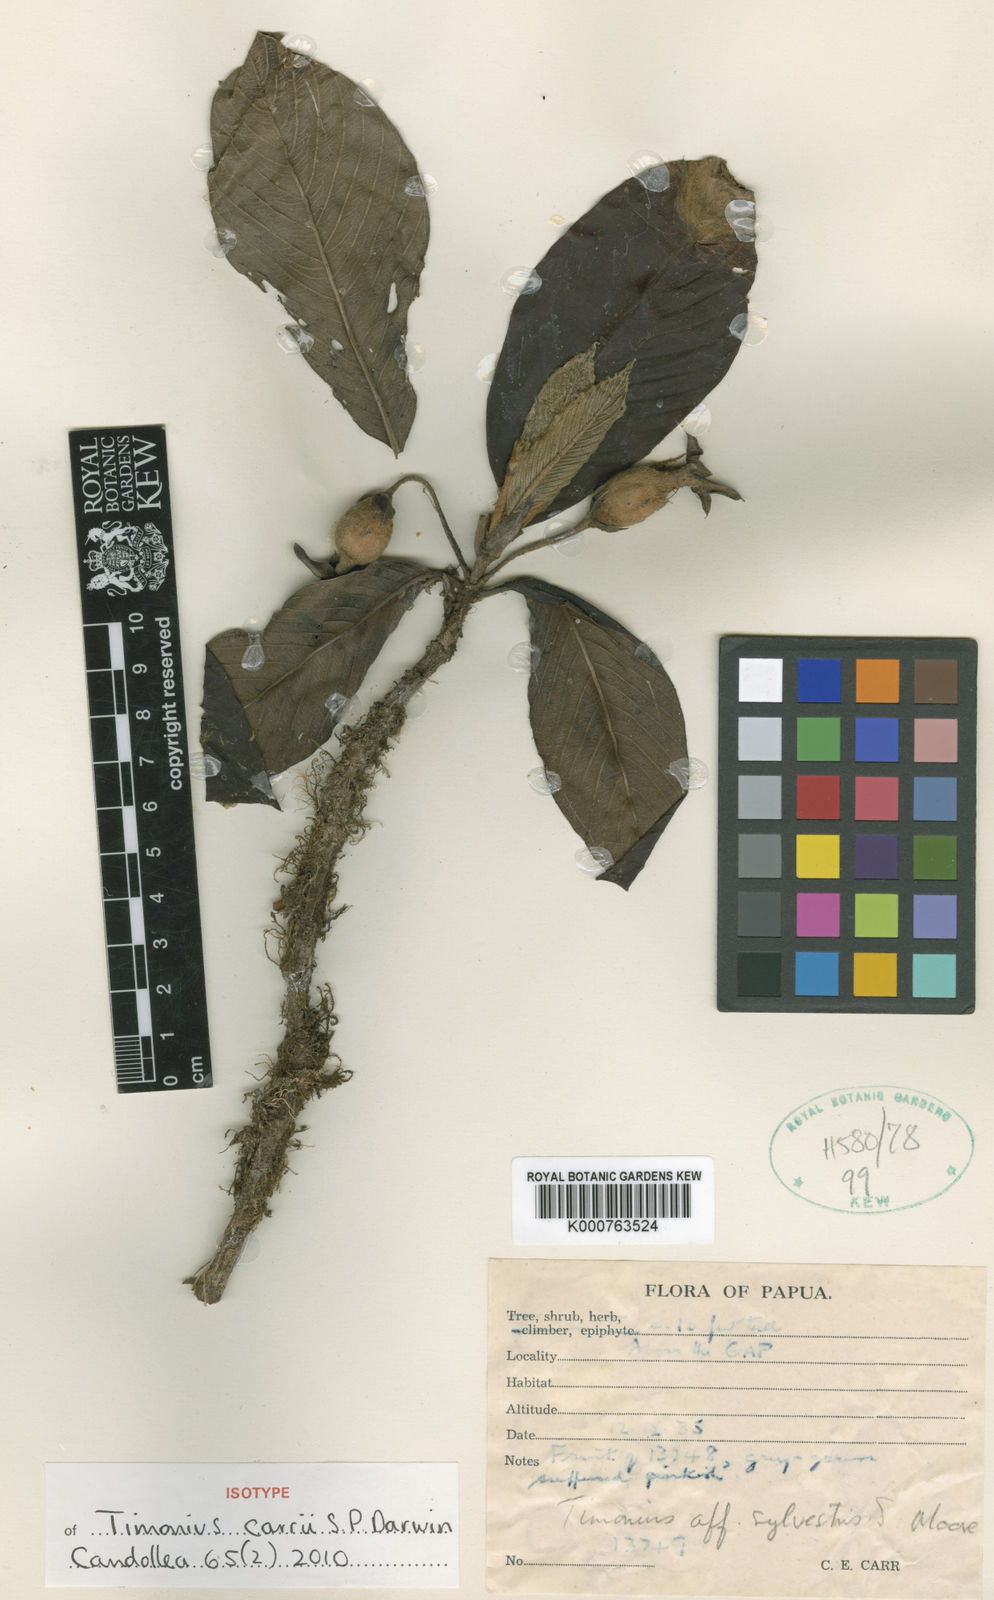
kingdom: Plantae
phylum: Tracheophyta
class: Magnoliopsida
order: Gentianales
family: Rubiaceae
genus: Timonius
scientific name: Timonius carii
